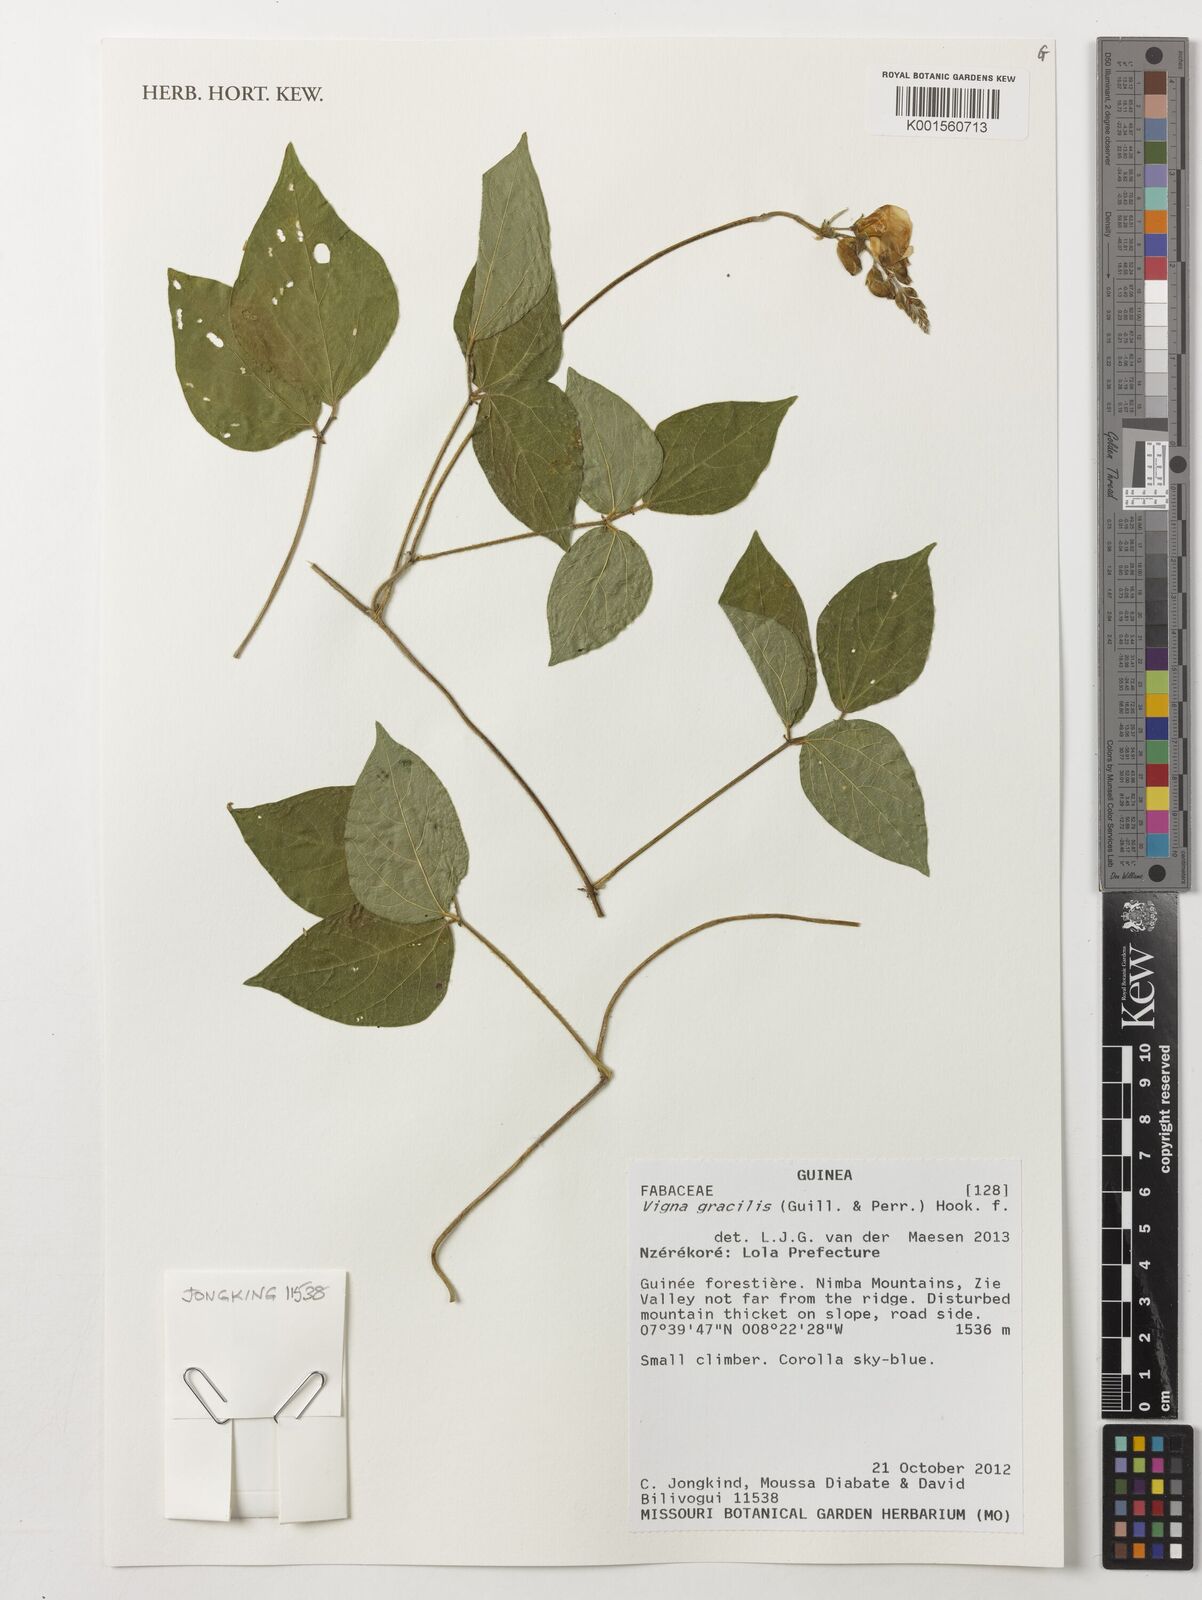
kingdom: Plantae
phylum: Tracheophyta
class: Magnoliopsida
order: Fabales
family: Fabaceae
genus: Vigna
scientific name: Vigna gracilis
